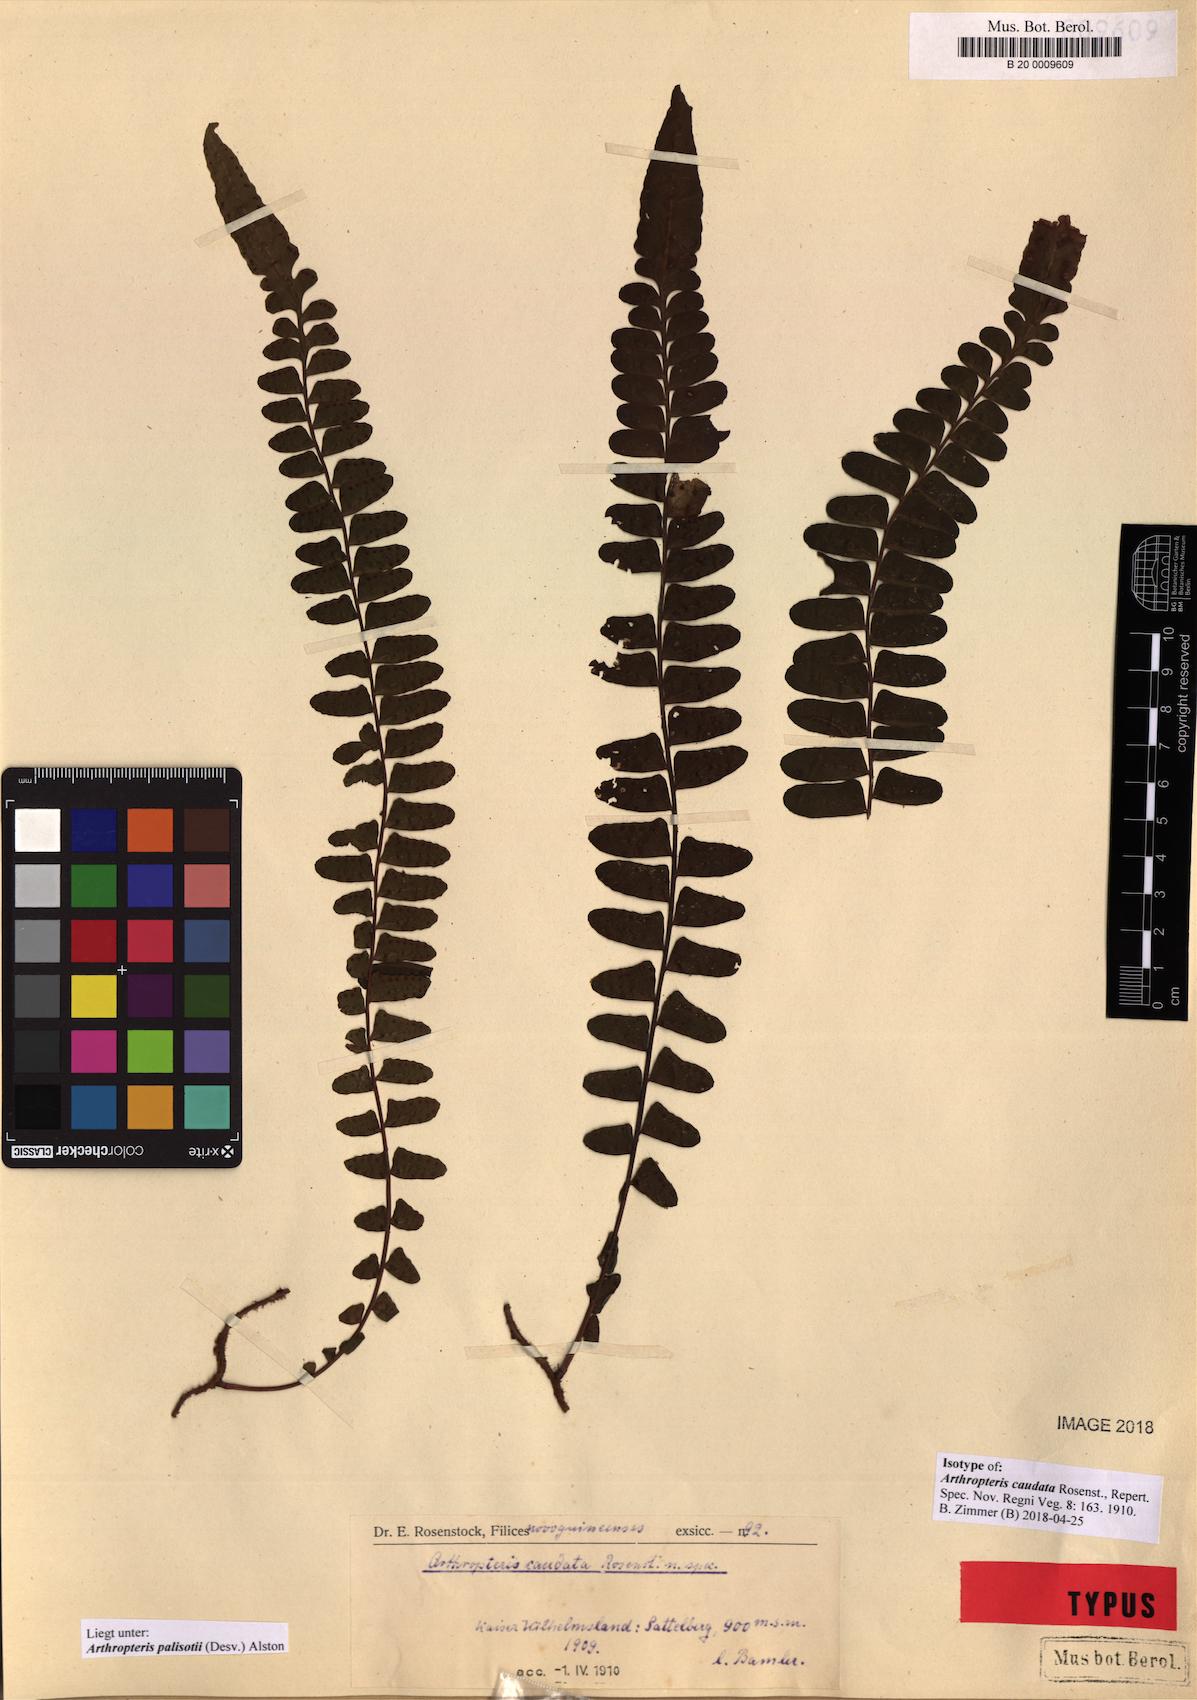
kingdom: Plantae
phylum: Tracheophyta
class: Polypodiopsida
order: Polypodiales
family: Tectariaceae
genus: Arthropteris
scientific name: Arthropteris palisotii
